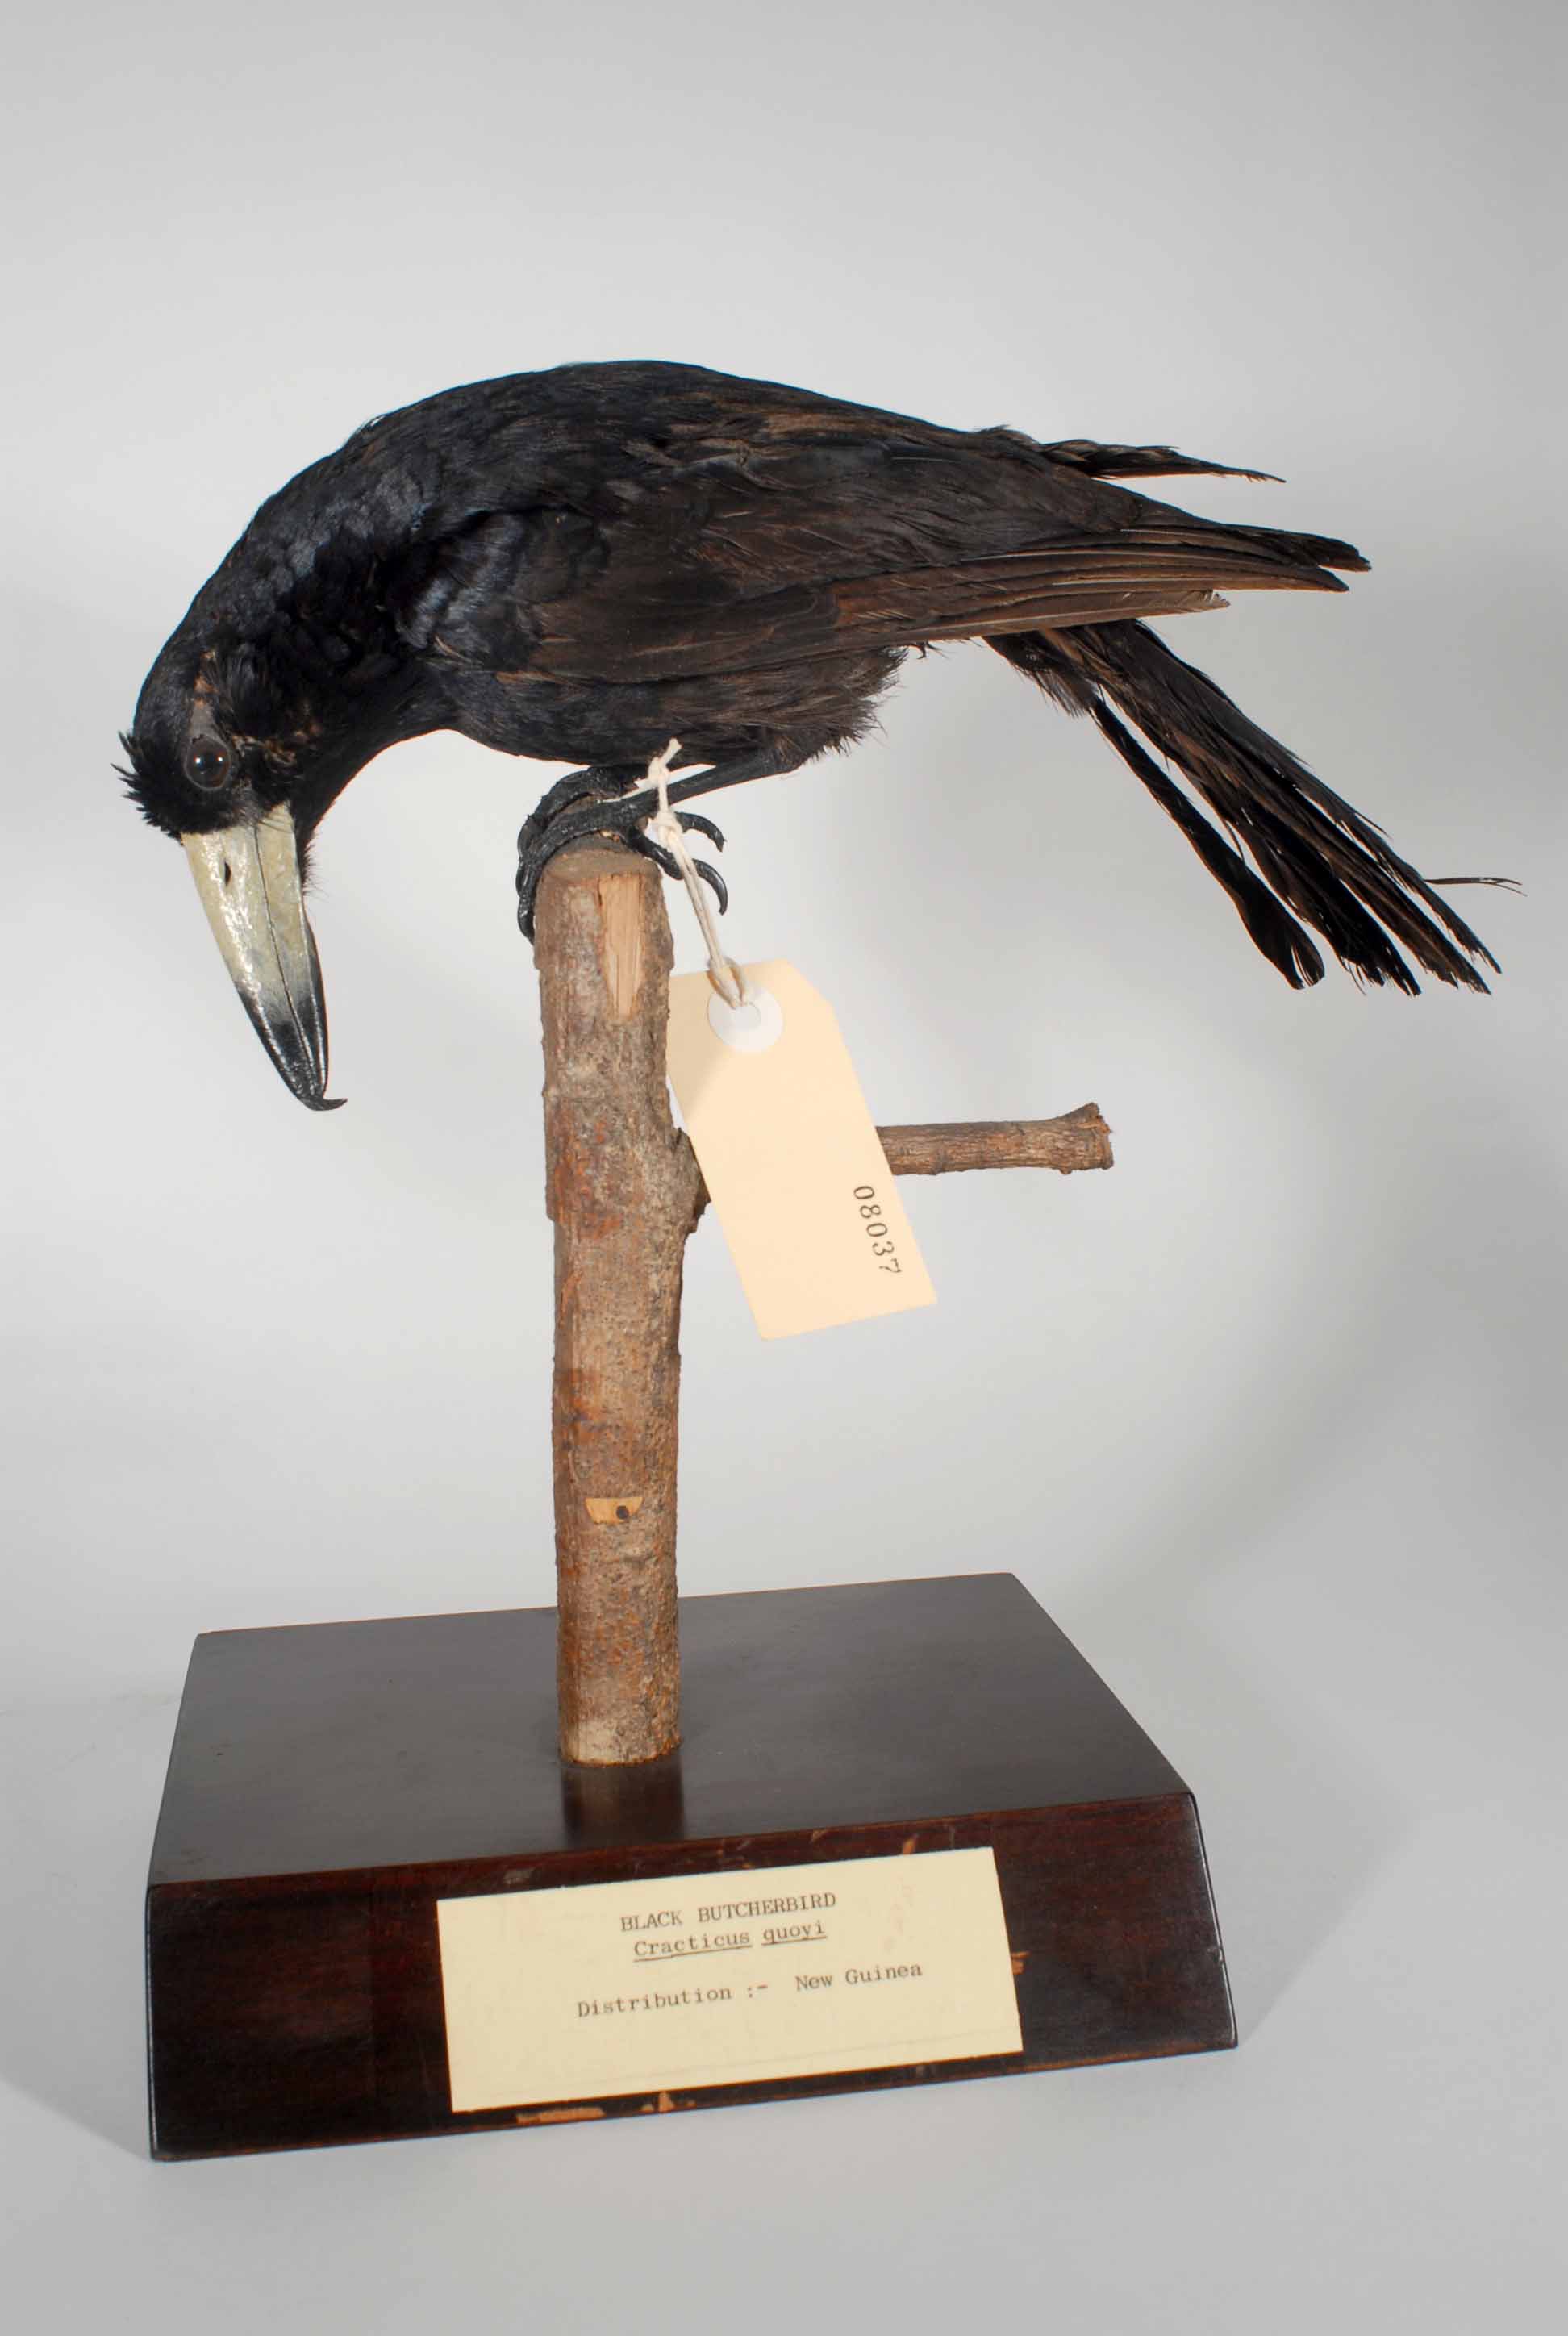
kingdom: Animalia
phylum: Chordata
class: Aves
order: Passeriformes
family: Cracticidae
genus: Cracticus
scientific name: Cracticus quoyi
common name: Black butcherbird
